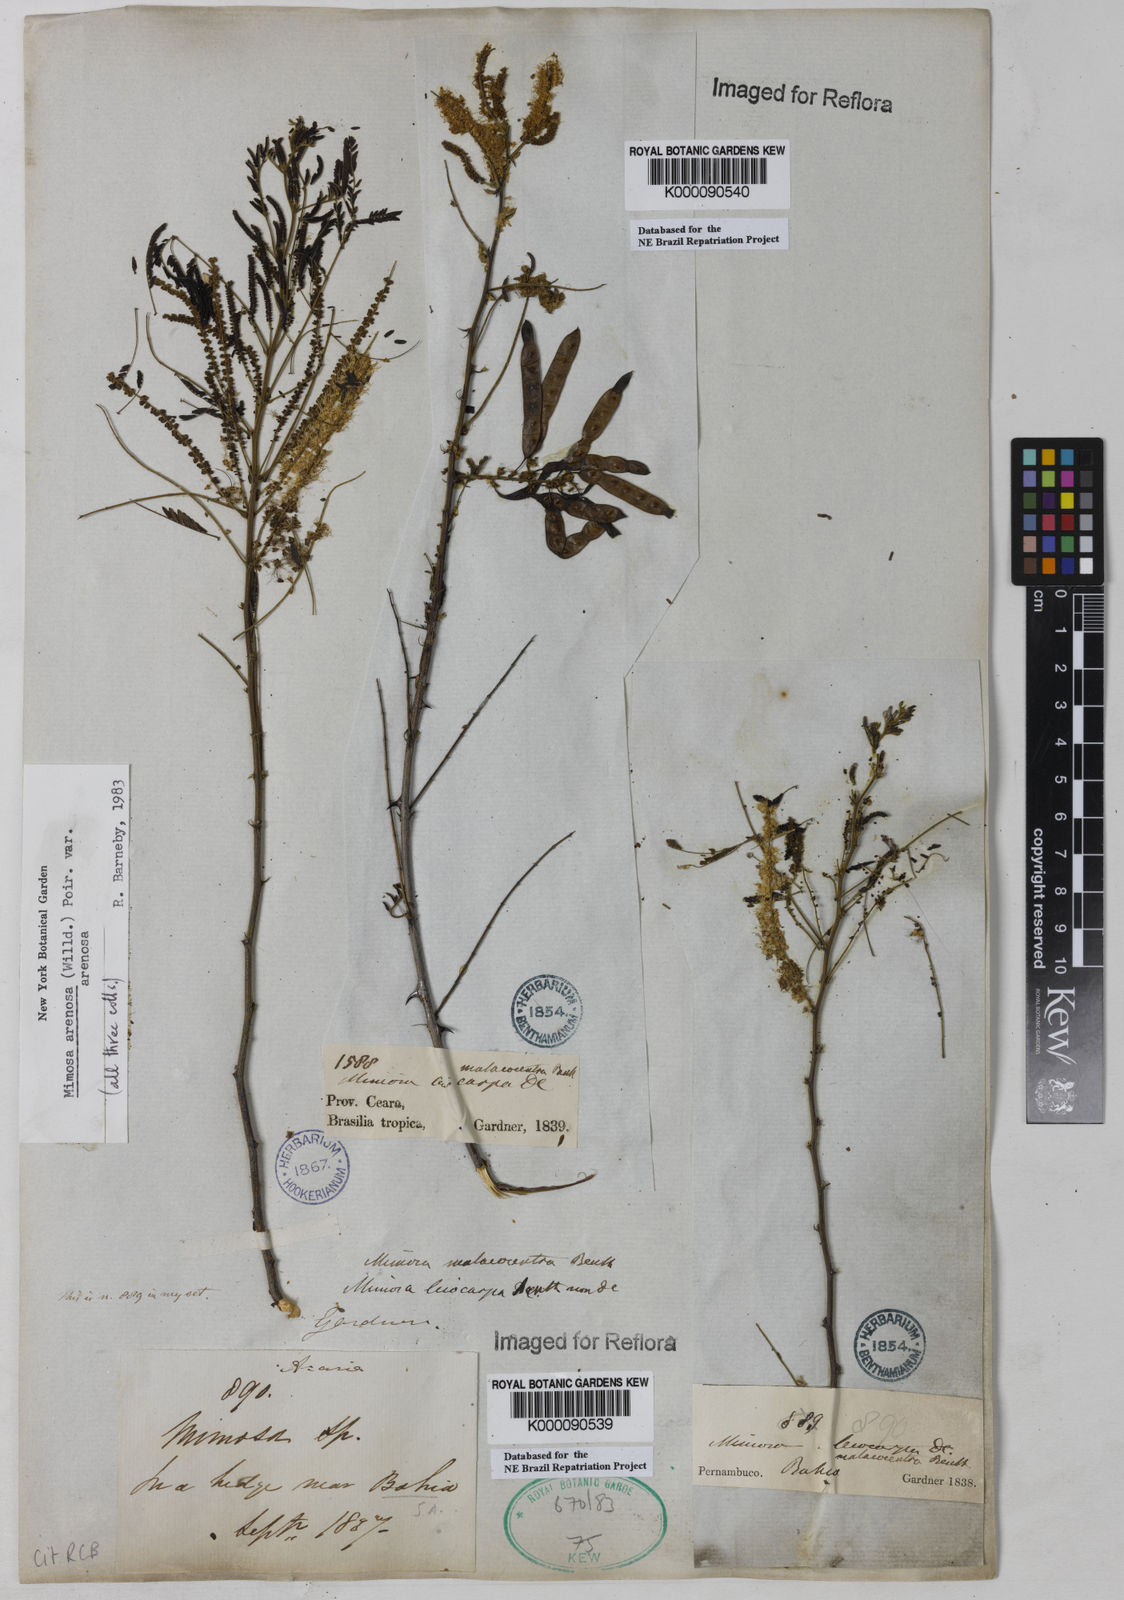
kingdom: Plantae
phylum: Tracheophyta
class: Magnoliopsida
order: Fabales
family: Fabaceae
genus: Mimosa
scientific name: Mimosa arenosa
